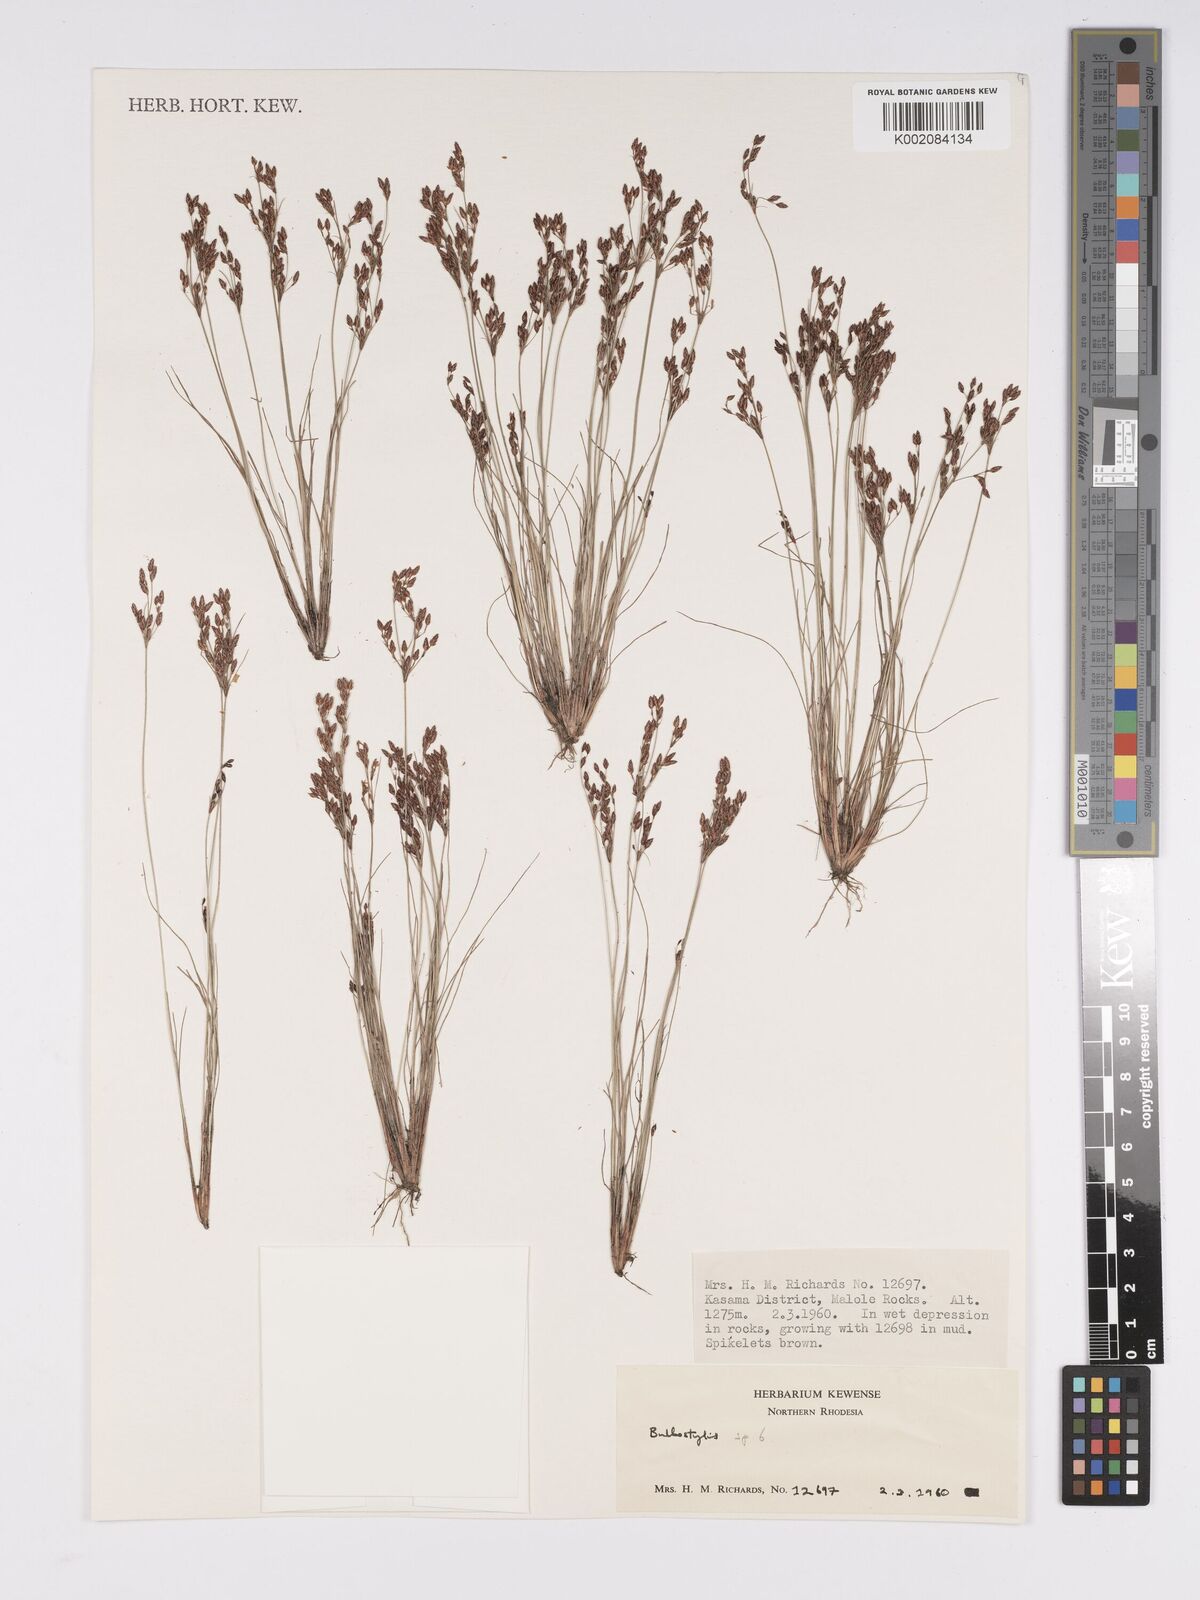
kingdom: Plantae
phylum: Tracheophyta
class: Liliopsida
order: Poales
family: Cyperaceae
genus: Bulbostylis
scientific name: Bulbostylis
